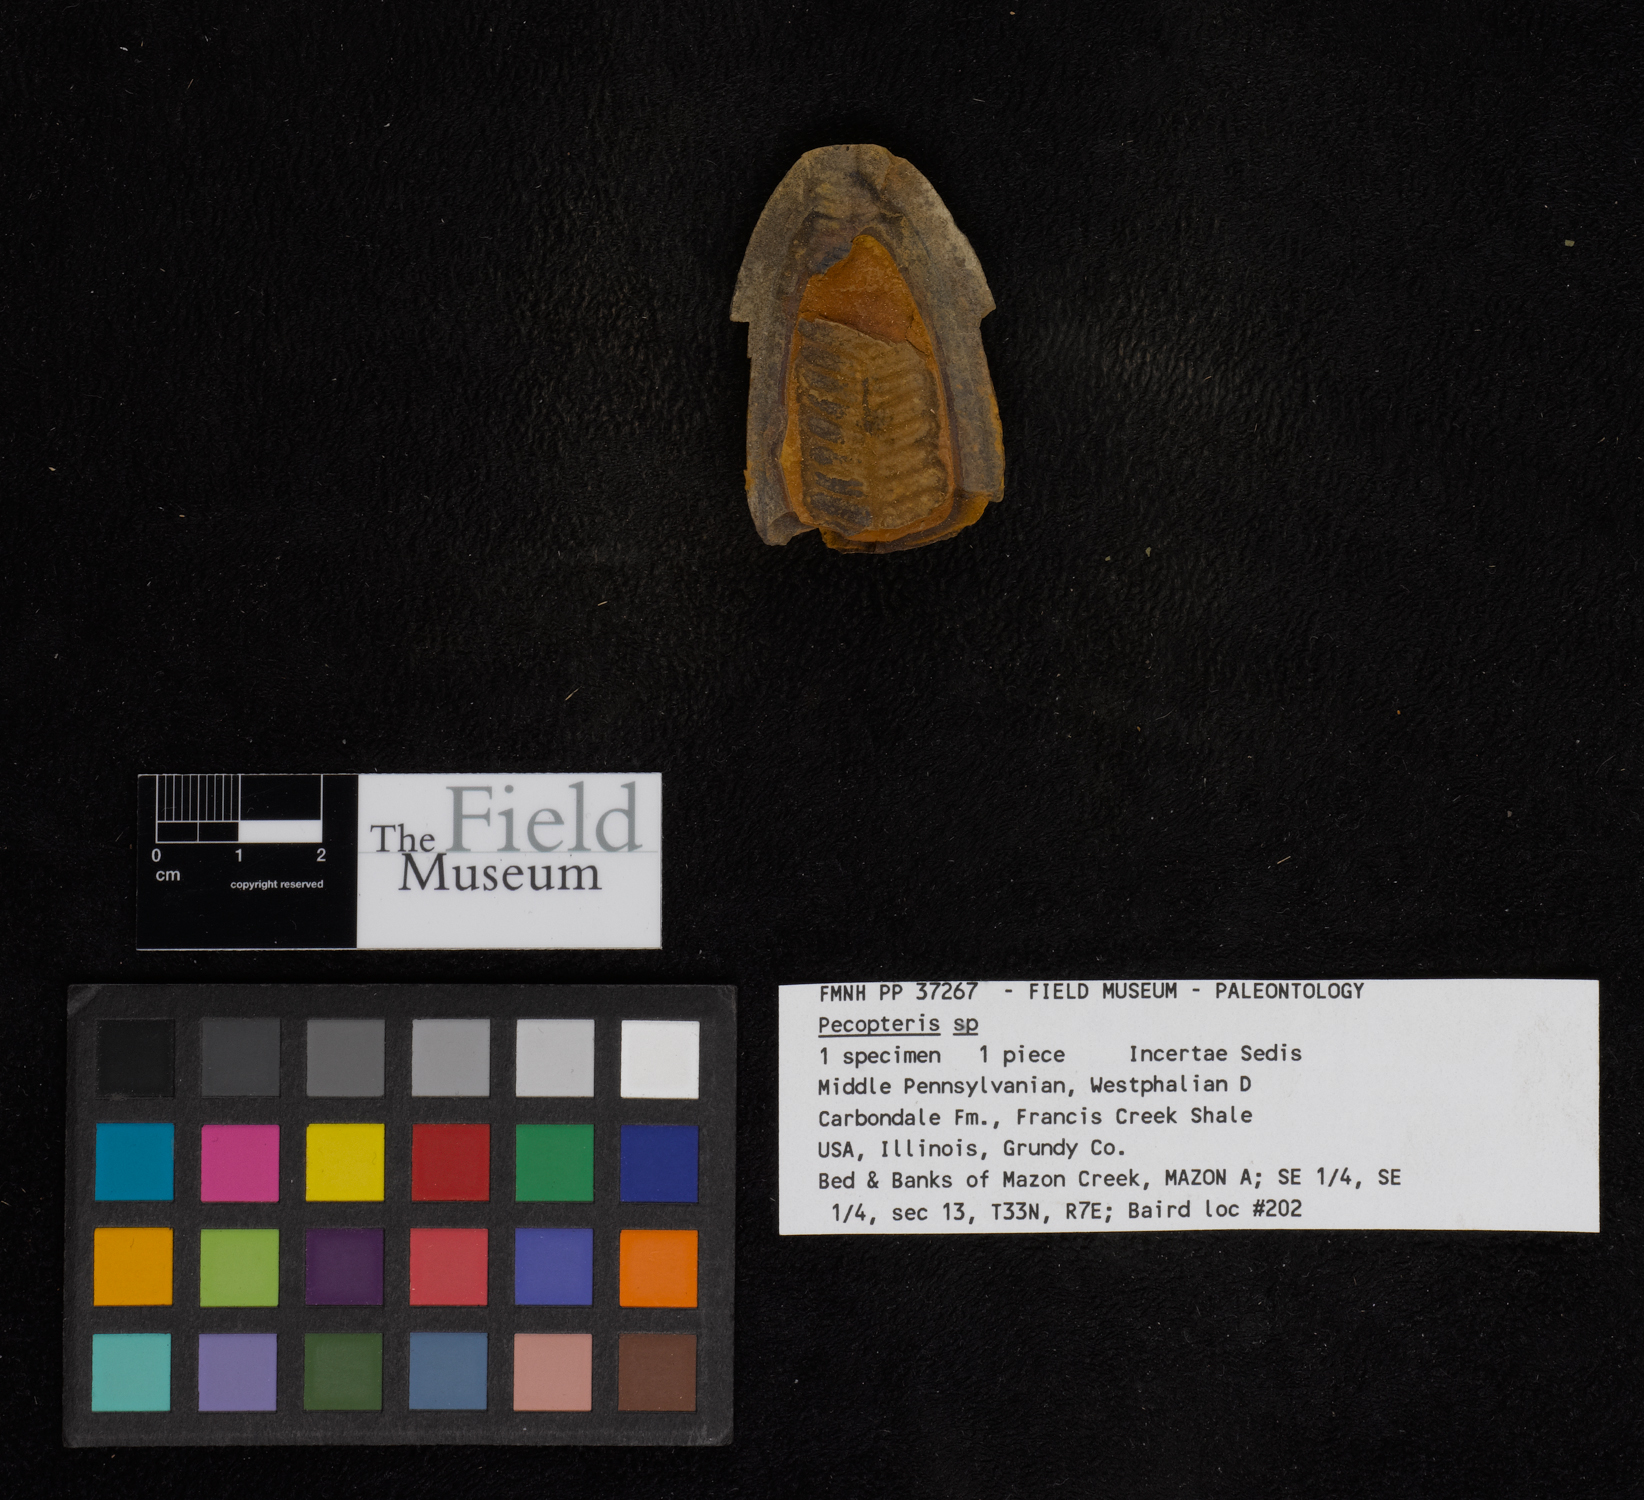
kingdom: Plantae
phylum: Tracheophyta
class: Polypodiopsida
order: Marattiales
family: Asterothecaceae
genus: Pecopteris
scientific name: Pecopteris
